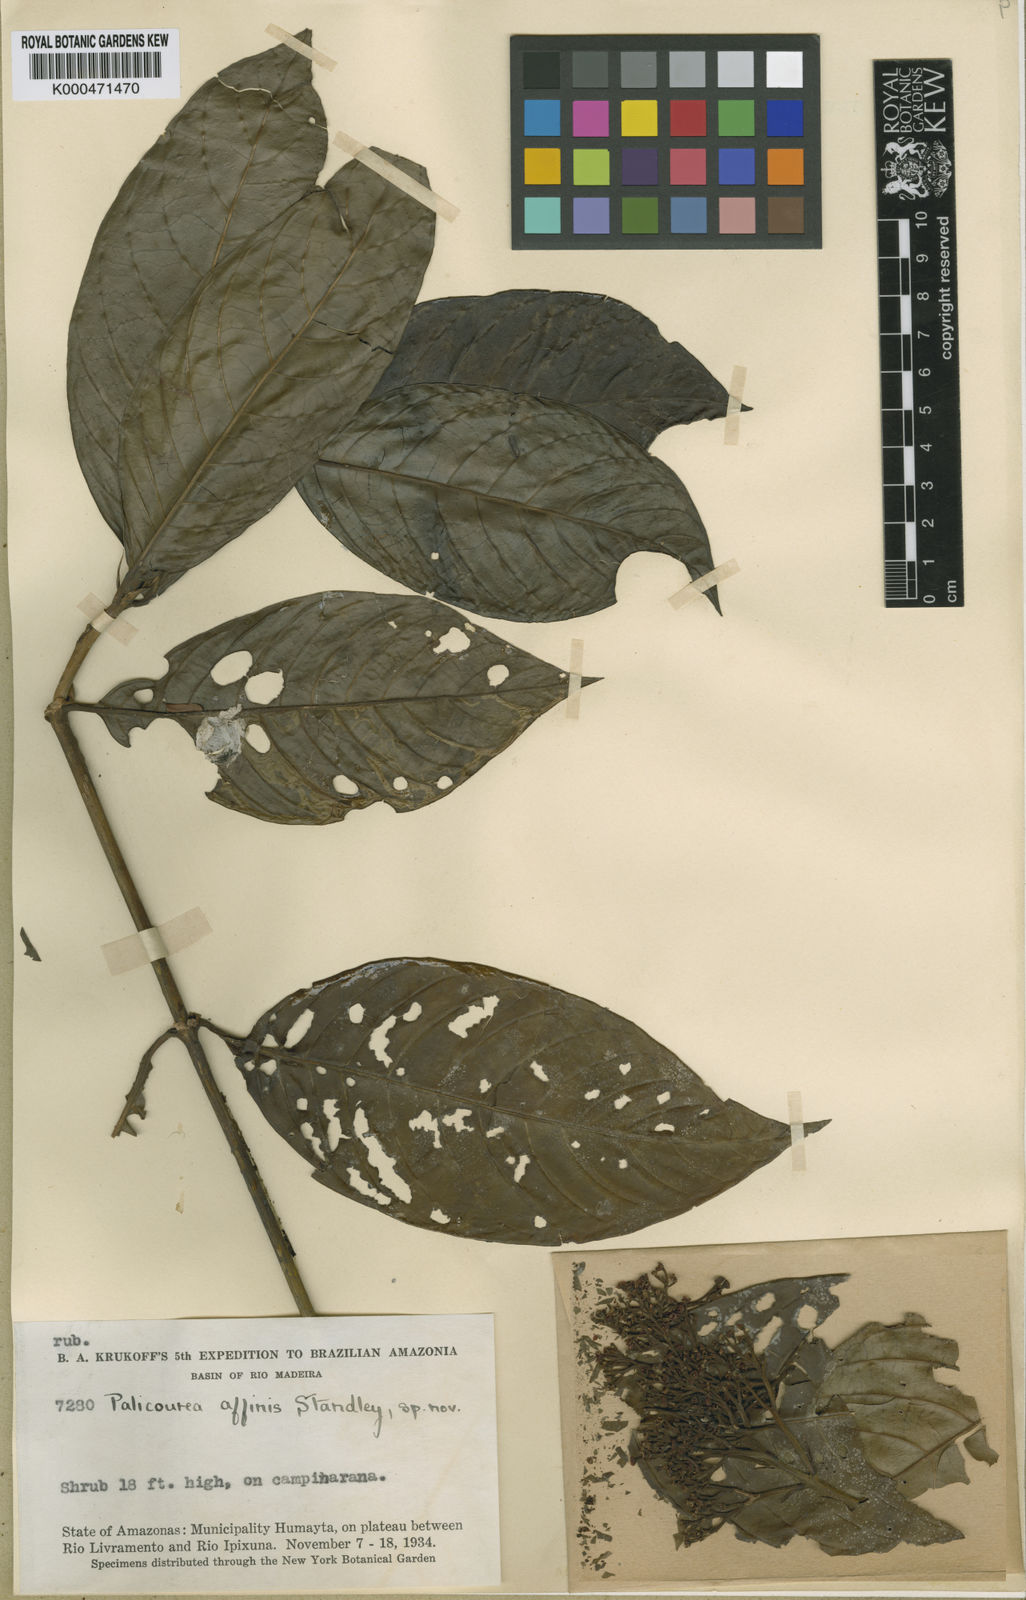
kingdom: Plantae
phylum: Tracheophyta
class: Magnoliopsida
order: Gentianales
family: Rubiaceae
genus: Palicourea
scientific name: Palicourea affinis
